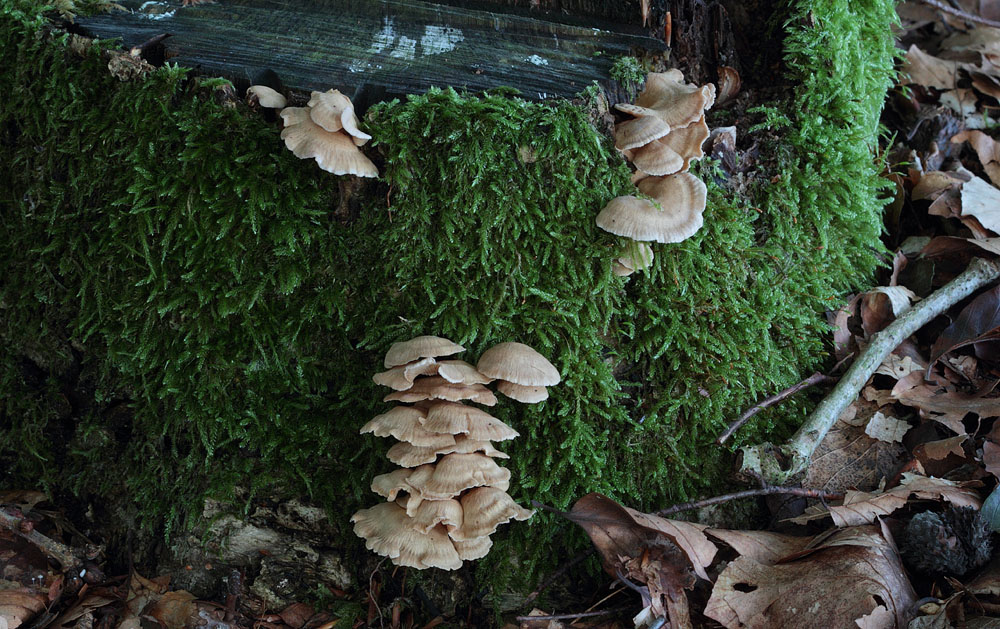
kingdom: Fungi
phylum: Basidiomycota
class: Agaricomycetes
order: Agaricales
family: Mycenaceae
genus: Panellus
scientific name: Panellus stipticus
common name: kliddet epaulethat
